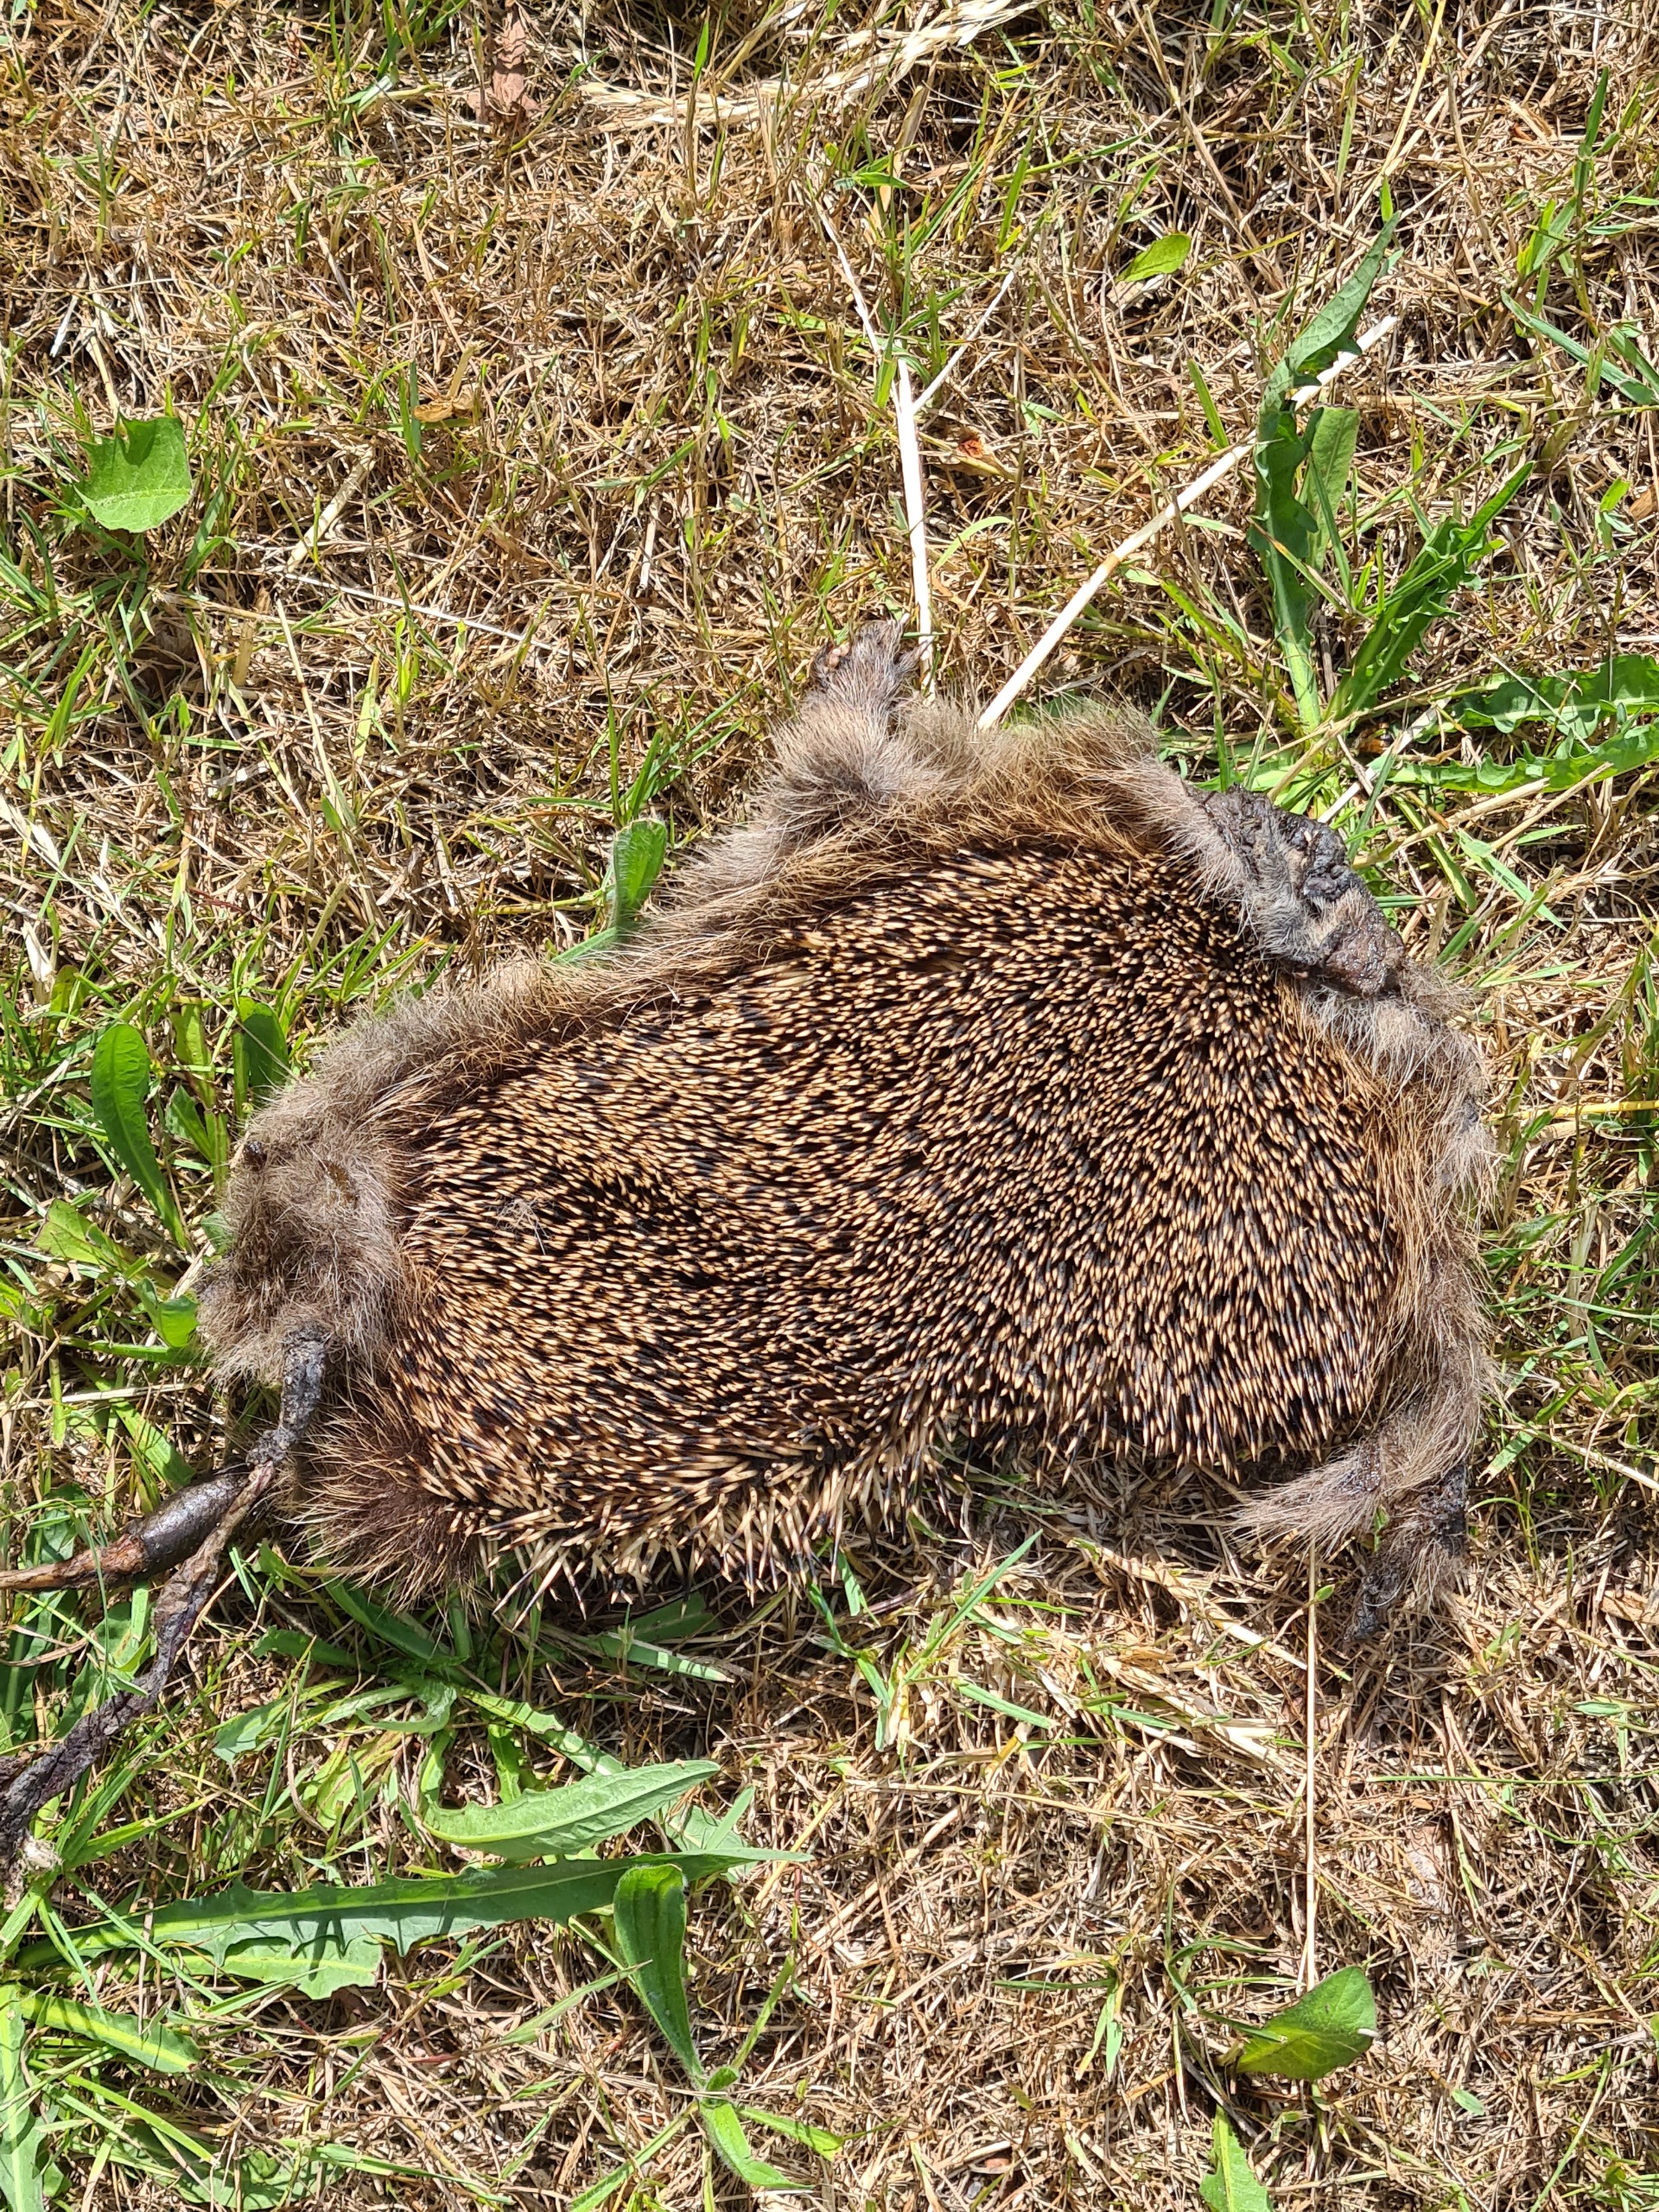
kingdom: Animalia
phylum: Chordata
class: Mammalia
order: Erinaceomorpha
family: Erinaceidae
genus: Erinaceus
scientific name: Erinaceus europaeus
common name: Pindsvin
